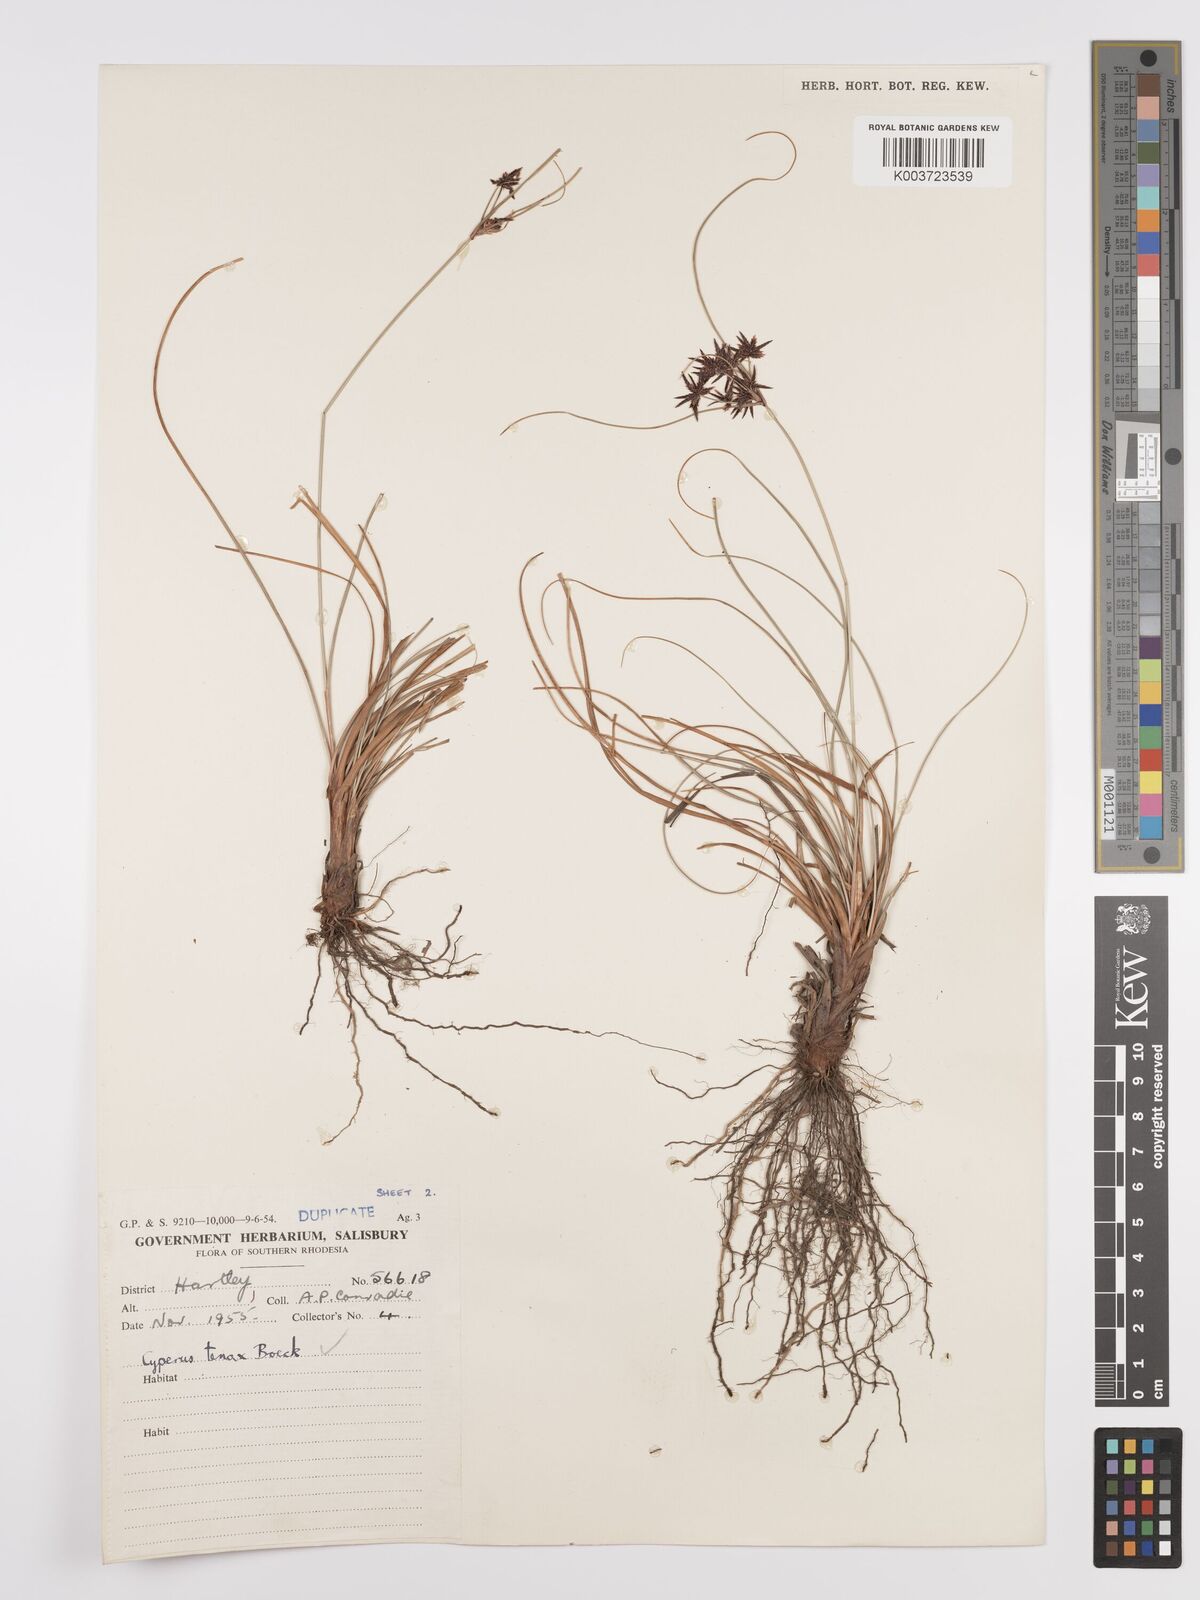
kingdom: Plantae
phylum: Tracheophyta
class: Liliopsida
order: Poales
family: Cyperaceae
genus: Cyperus
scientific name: Cyperus tenax
